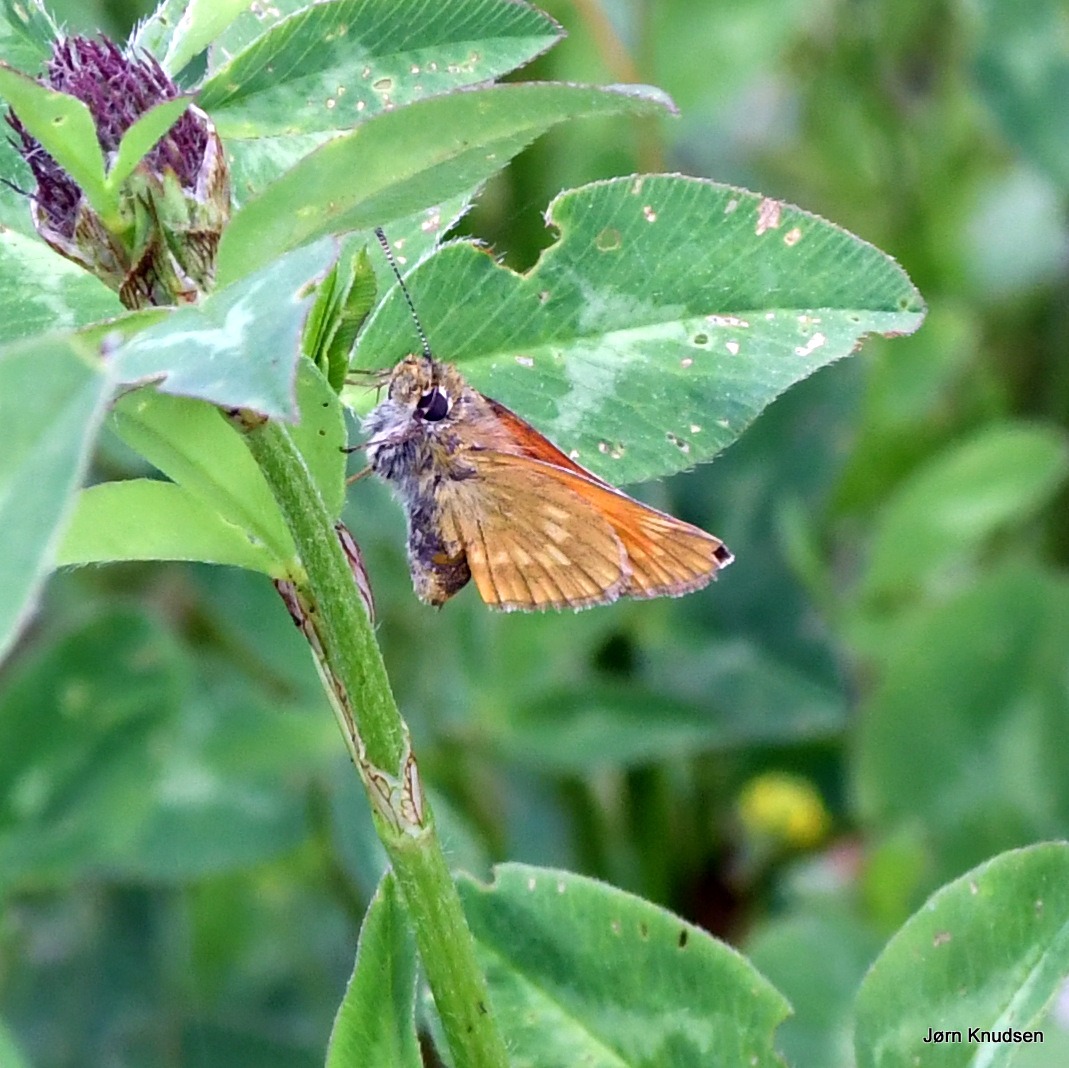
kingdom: Animalia
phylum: Arthropoda
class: Insecta
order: Lepidoptera
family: Hesperiidae
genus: Ochlodes
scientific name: Ochlodes venata
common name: Stor bredpande
